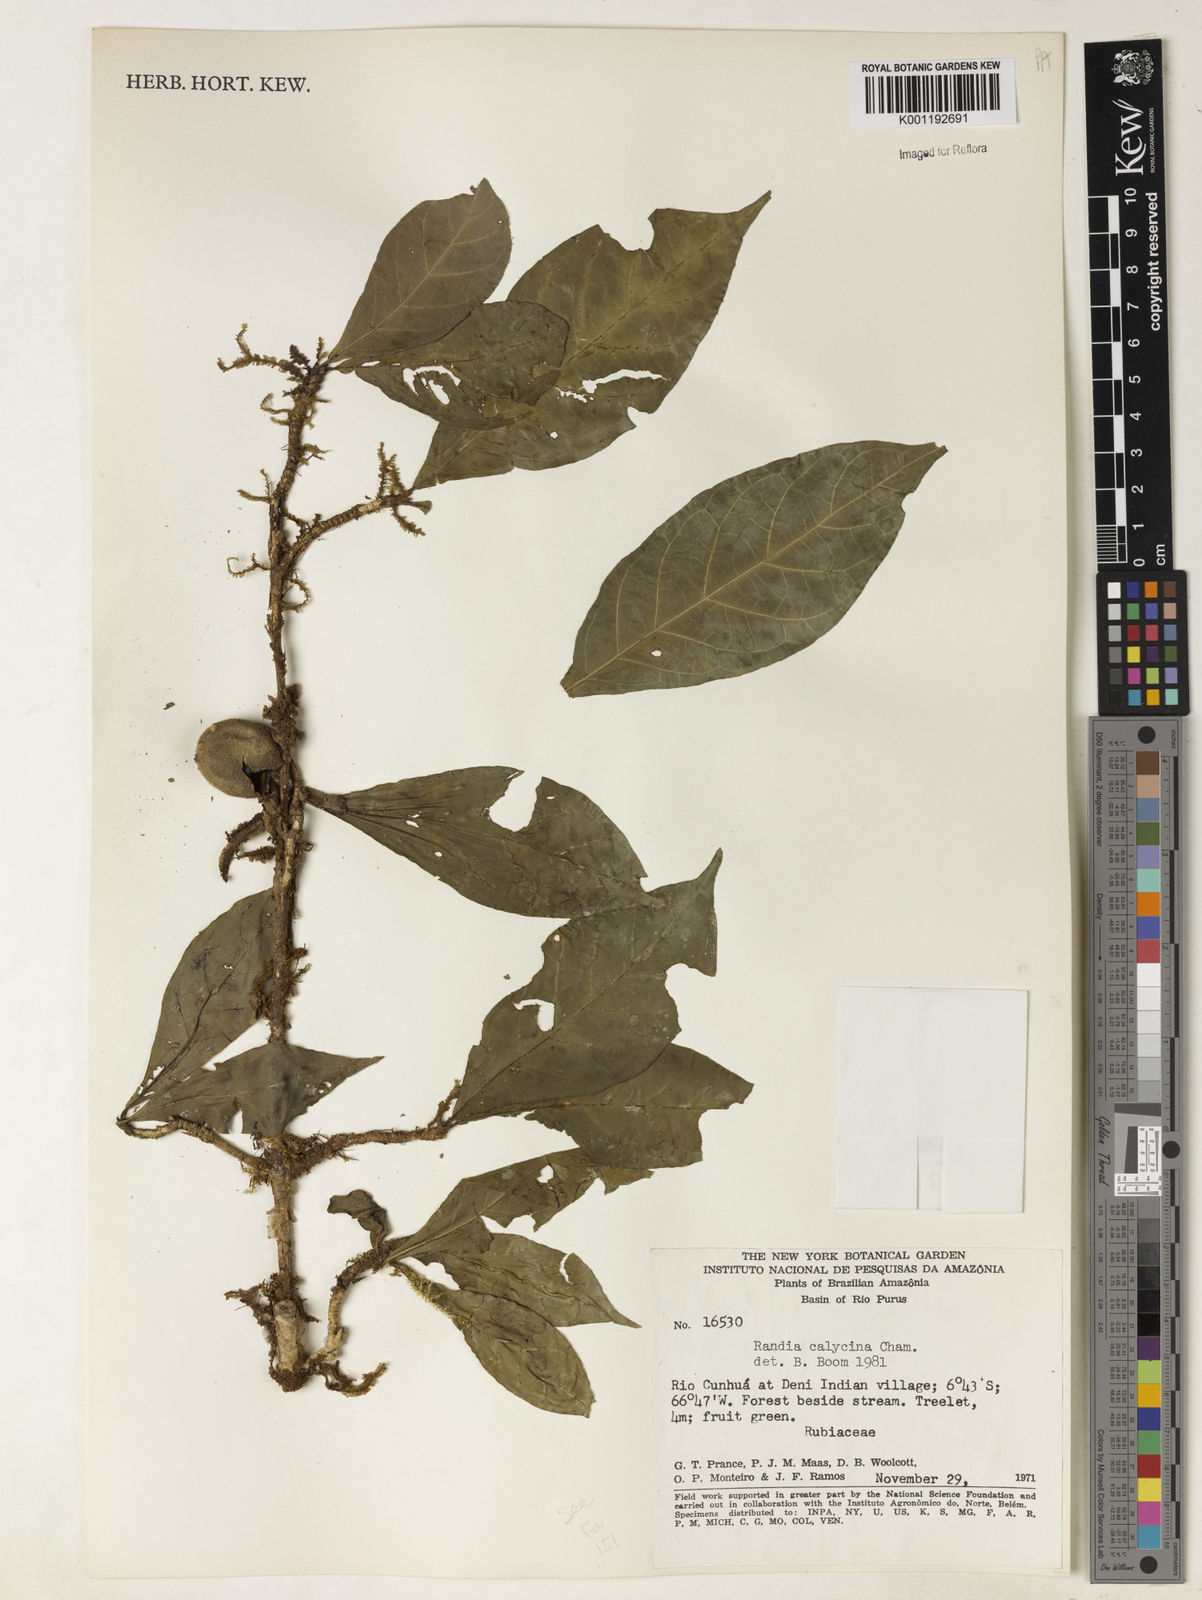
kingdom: Plantae
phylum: Tracheophyta
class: Magnoliopsida
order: Gentianales
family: Rubiaceae
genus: Randia
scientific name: Randia calycina
